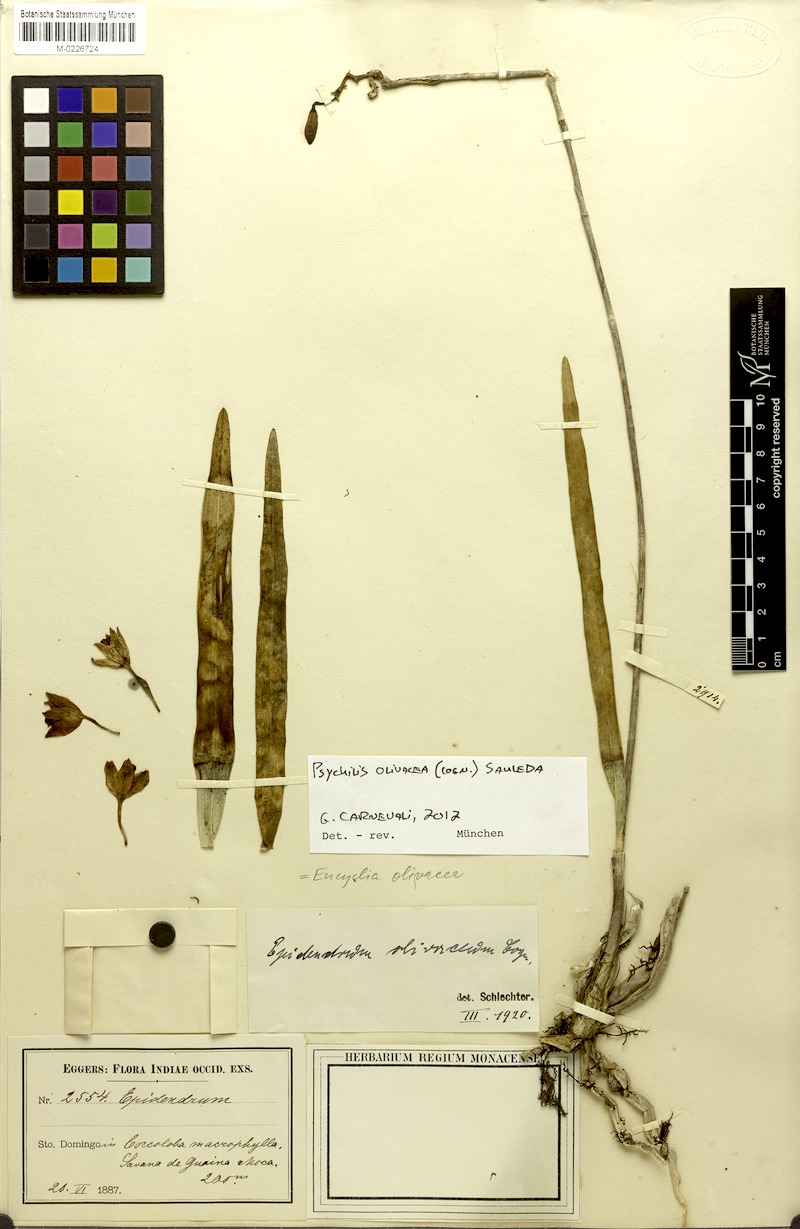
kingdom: Plantae
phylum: Tracheophyta
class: Liliopsida
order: Asparagales
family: Orchidaceae
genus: Psychilis
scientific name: Psychilis olivacea
